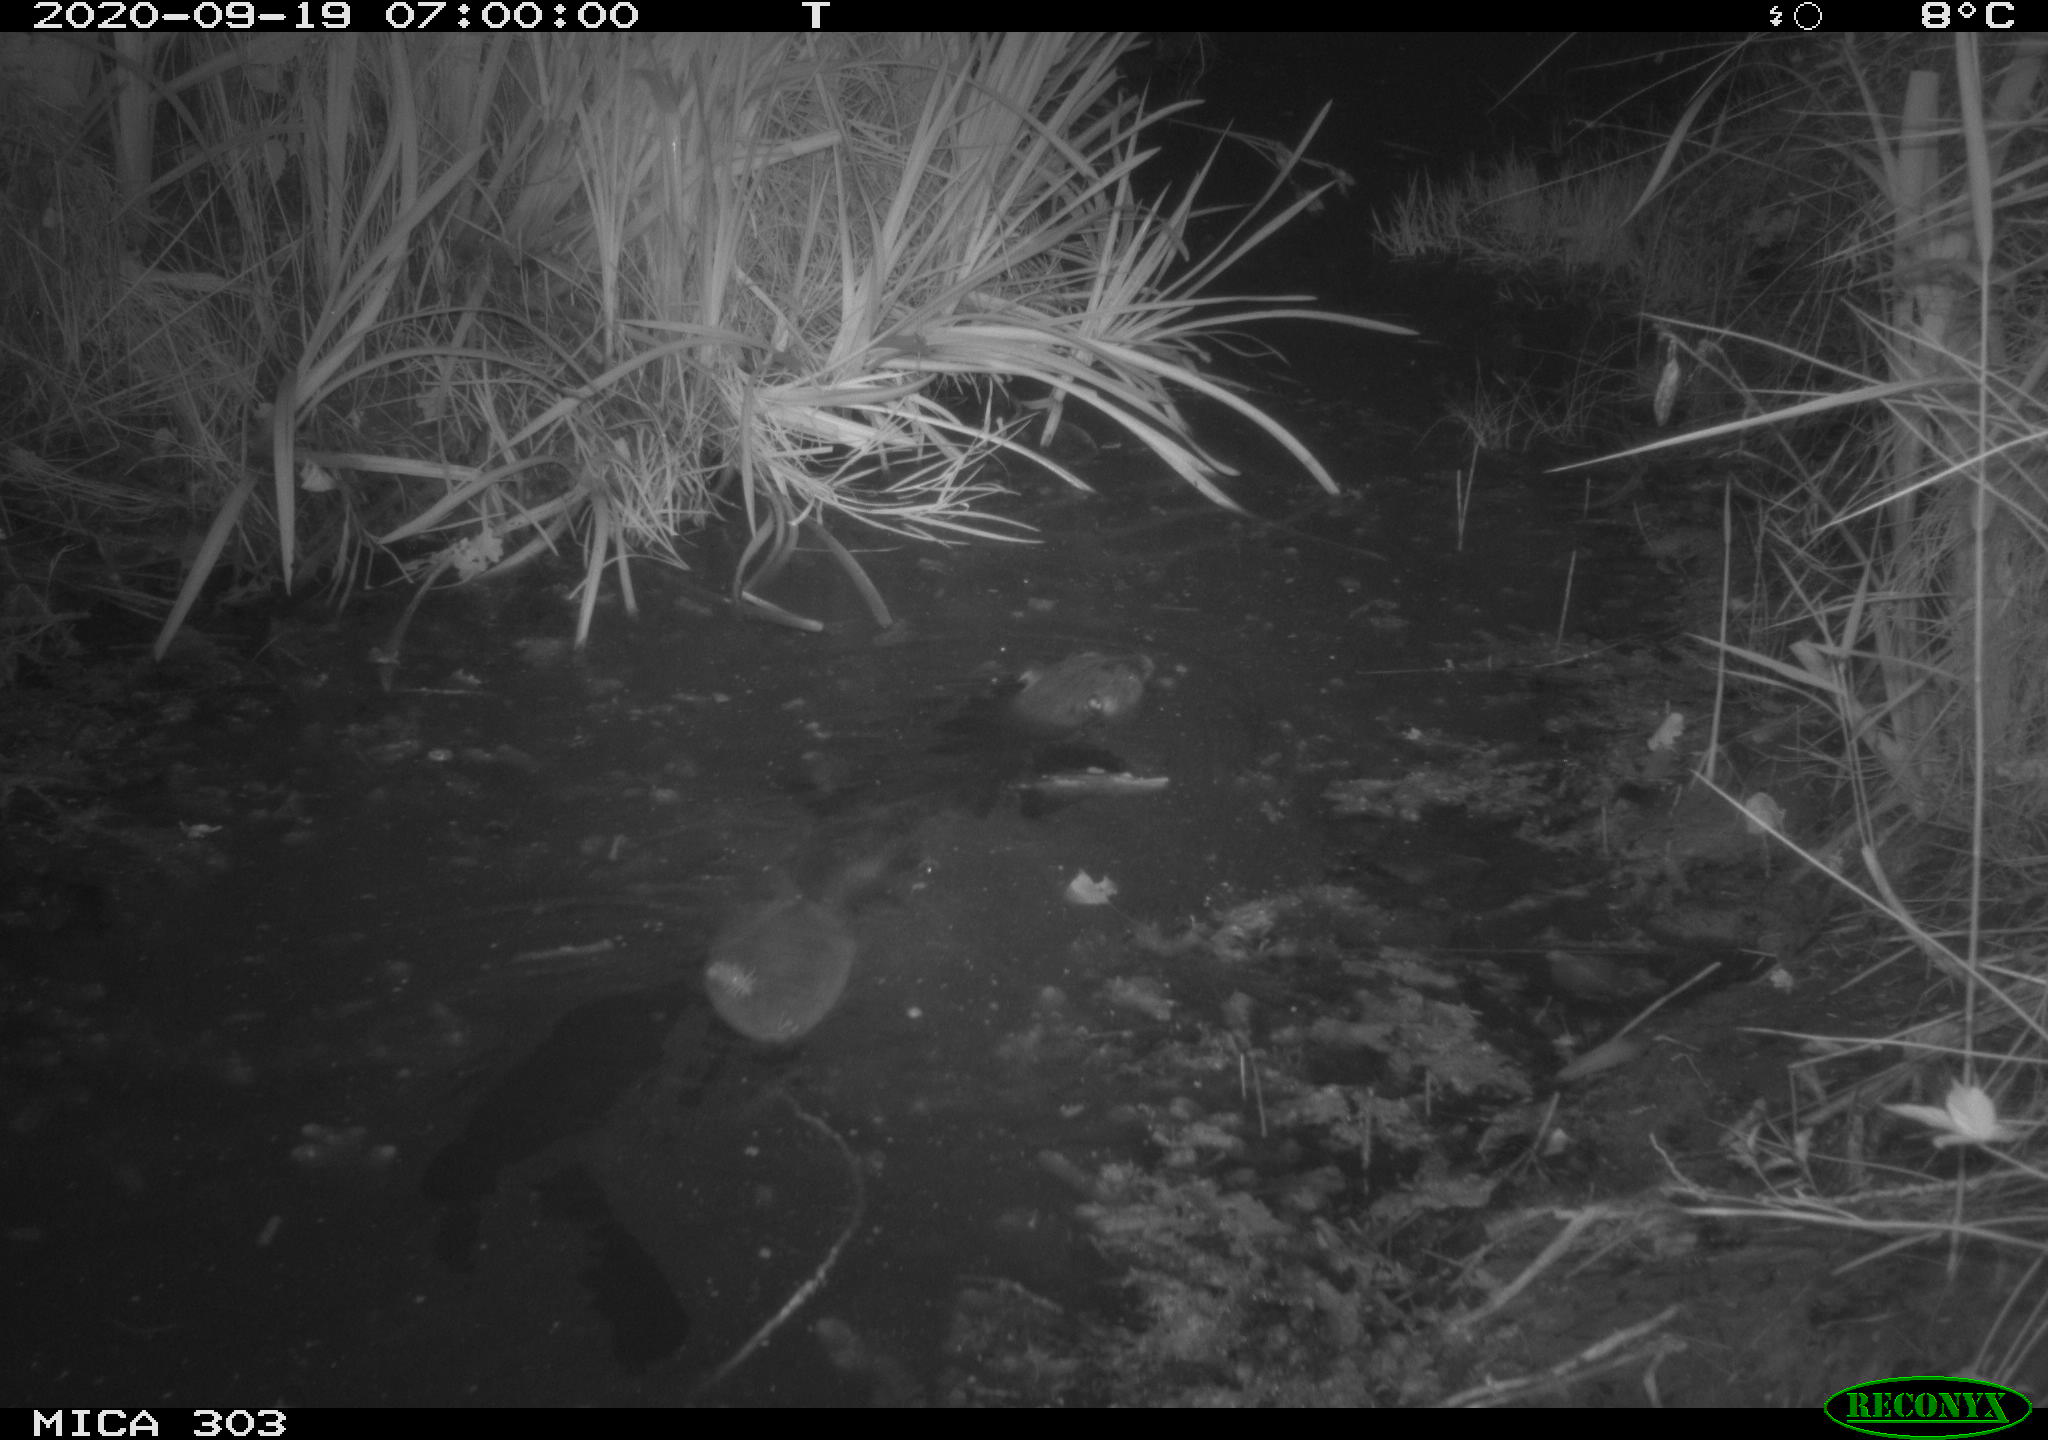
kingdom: Animalia
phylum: Chordata
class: Mammalia
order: Rodentia
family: Castoridae
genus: Castor
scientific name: Castor fiber
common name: Eurasian beaver
